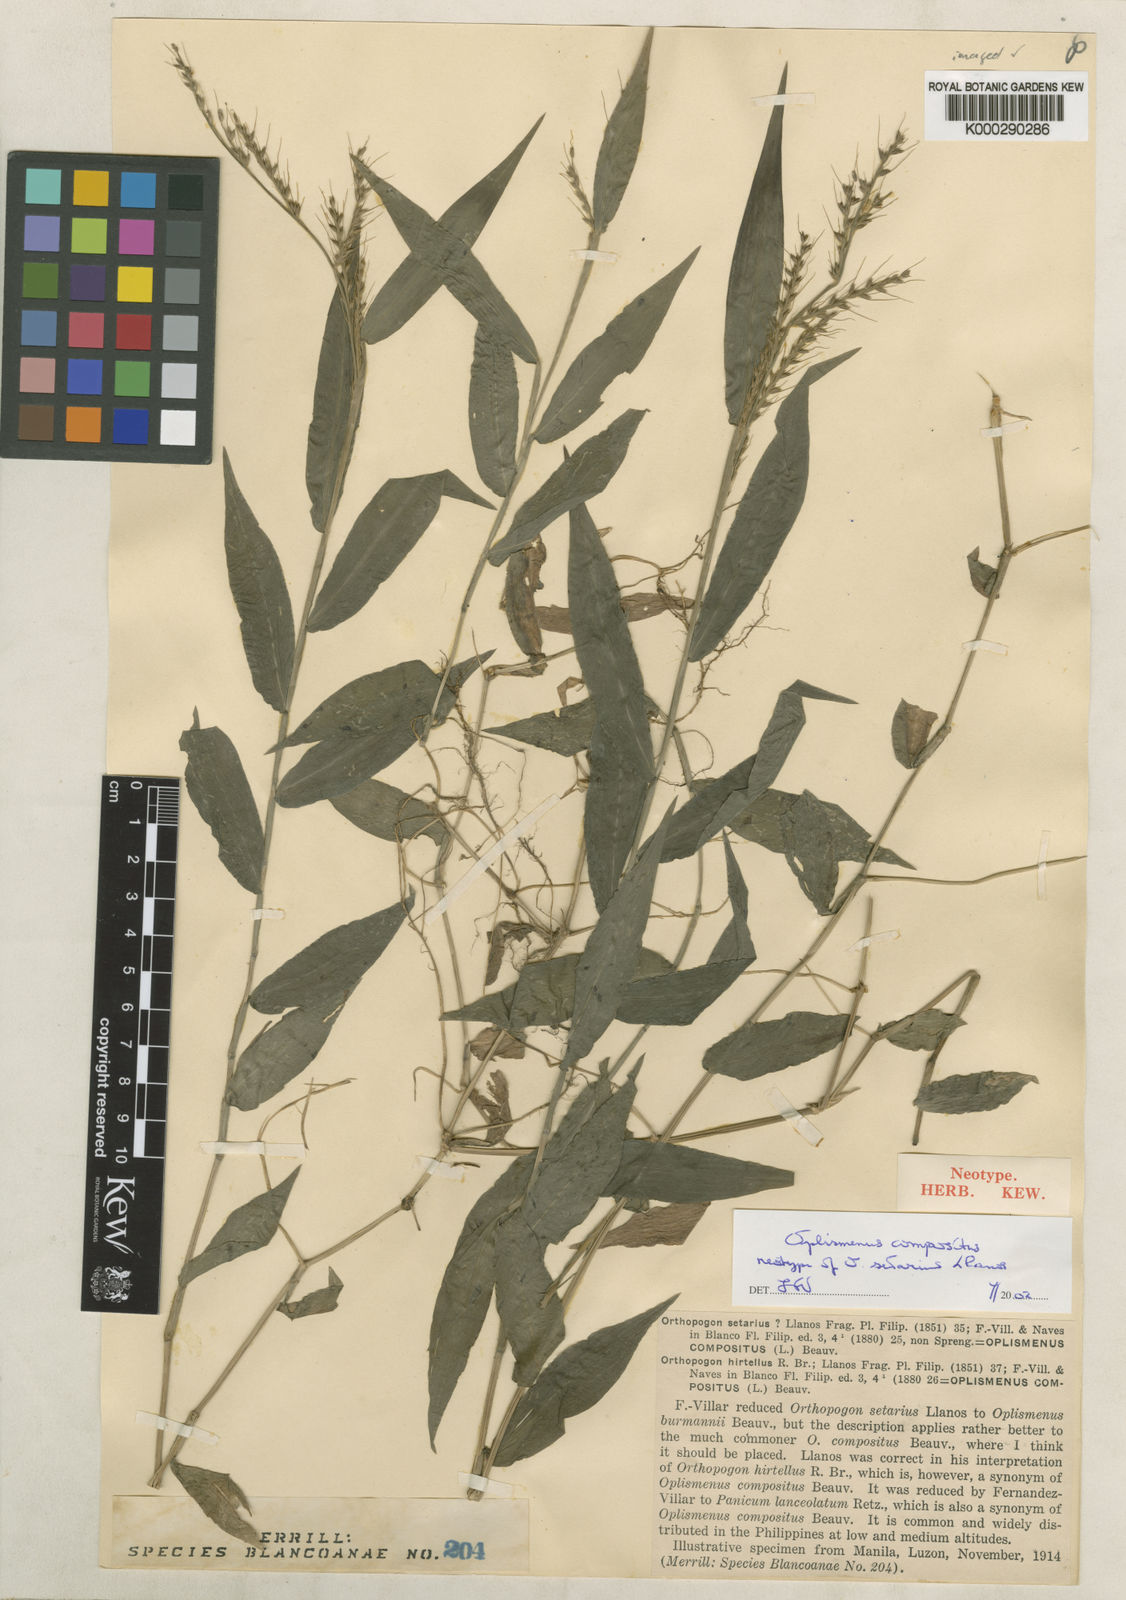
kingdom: Plantae
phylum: Tracheophyta
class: Liliopsida
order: Poales
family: Poaceae
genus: Oplismenus
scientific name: Oplismenus compositus
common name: Running mountain grass
